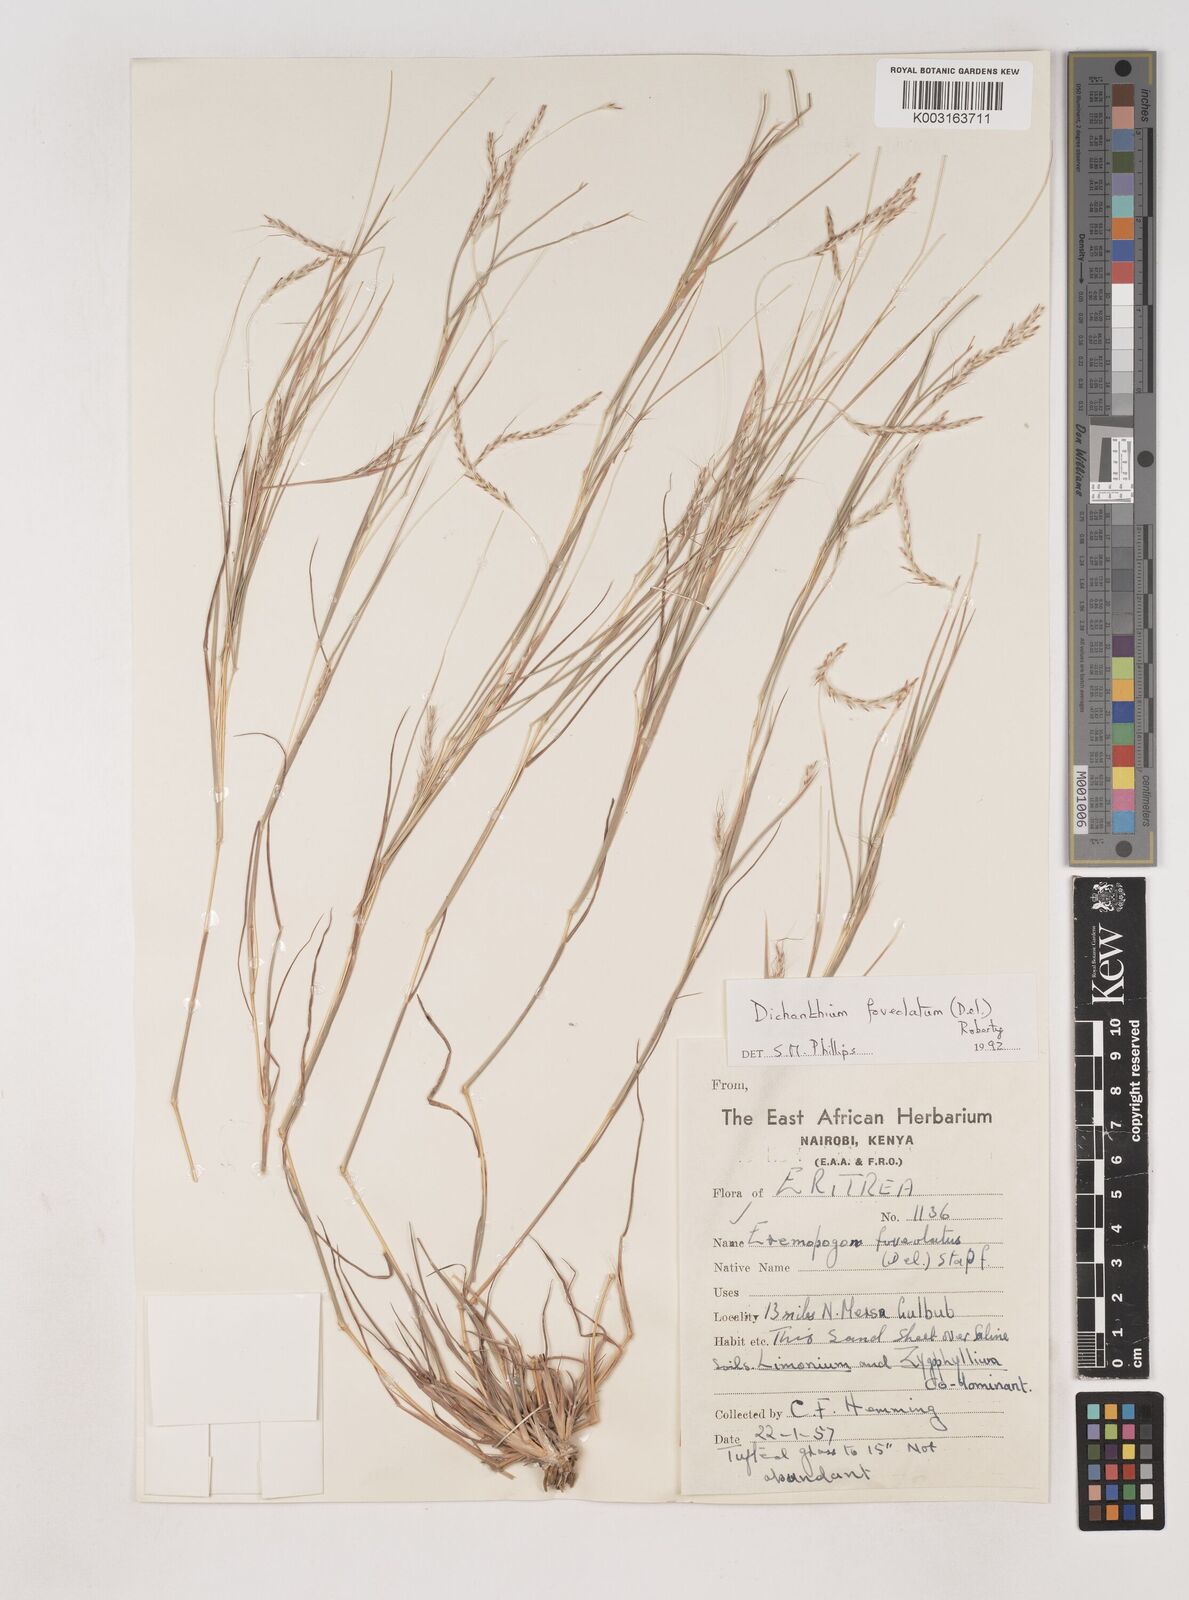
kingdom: Plantae
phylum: Tracheophyta
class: Liliopsida
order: Poales
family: Poaceae
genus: Dichanthium
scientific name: Dichanthium foveolatum
